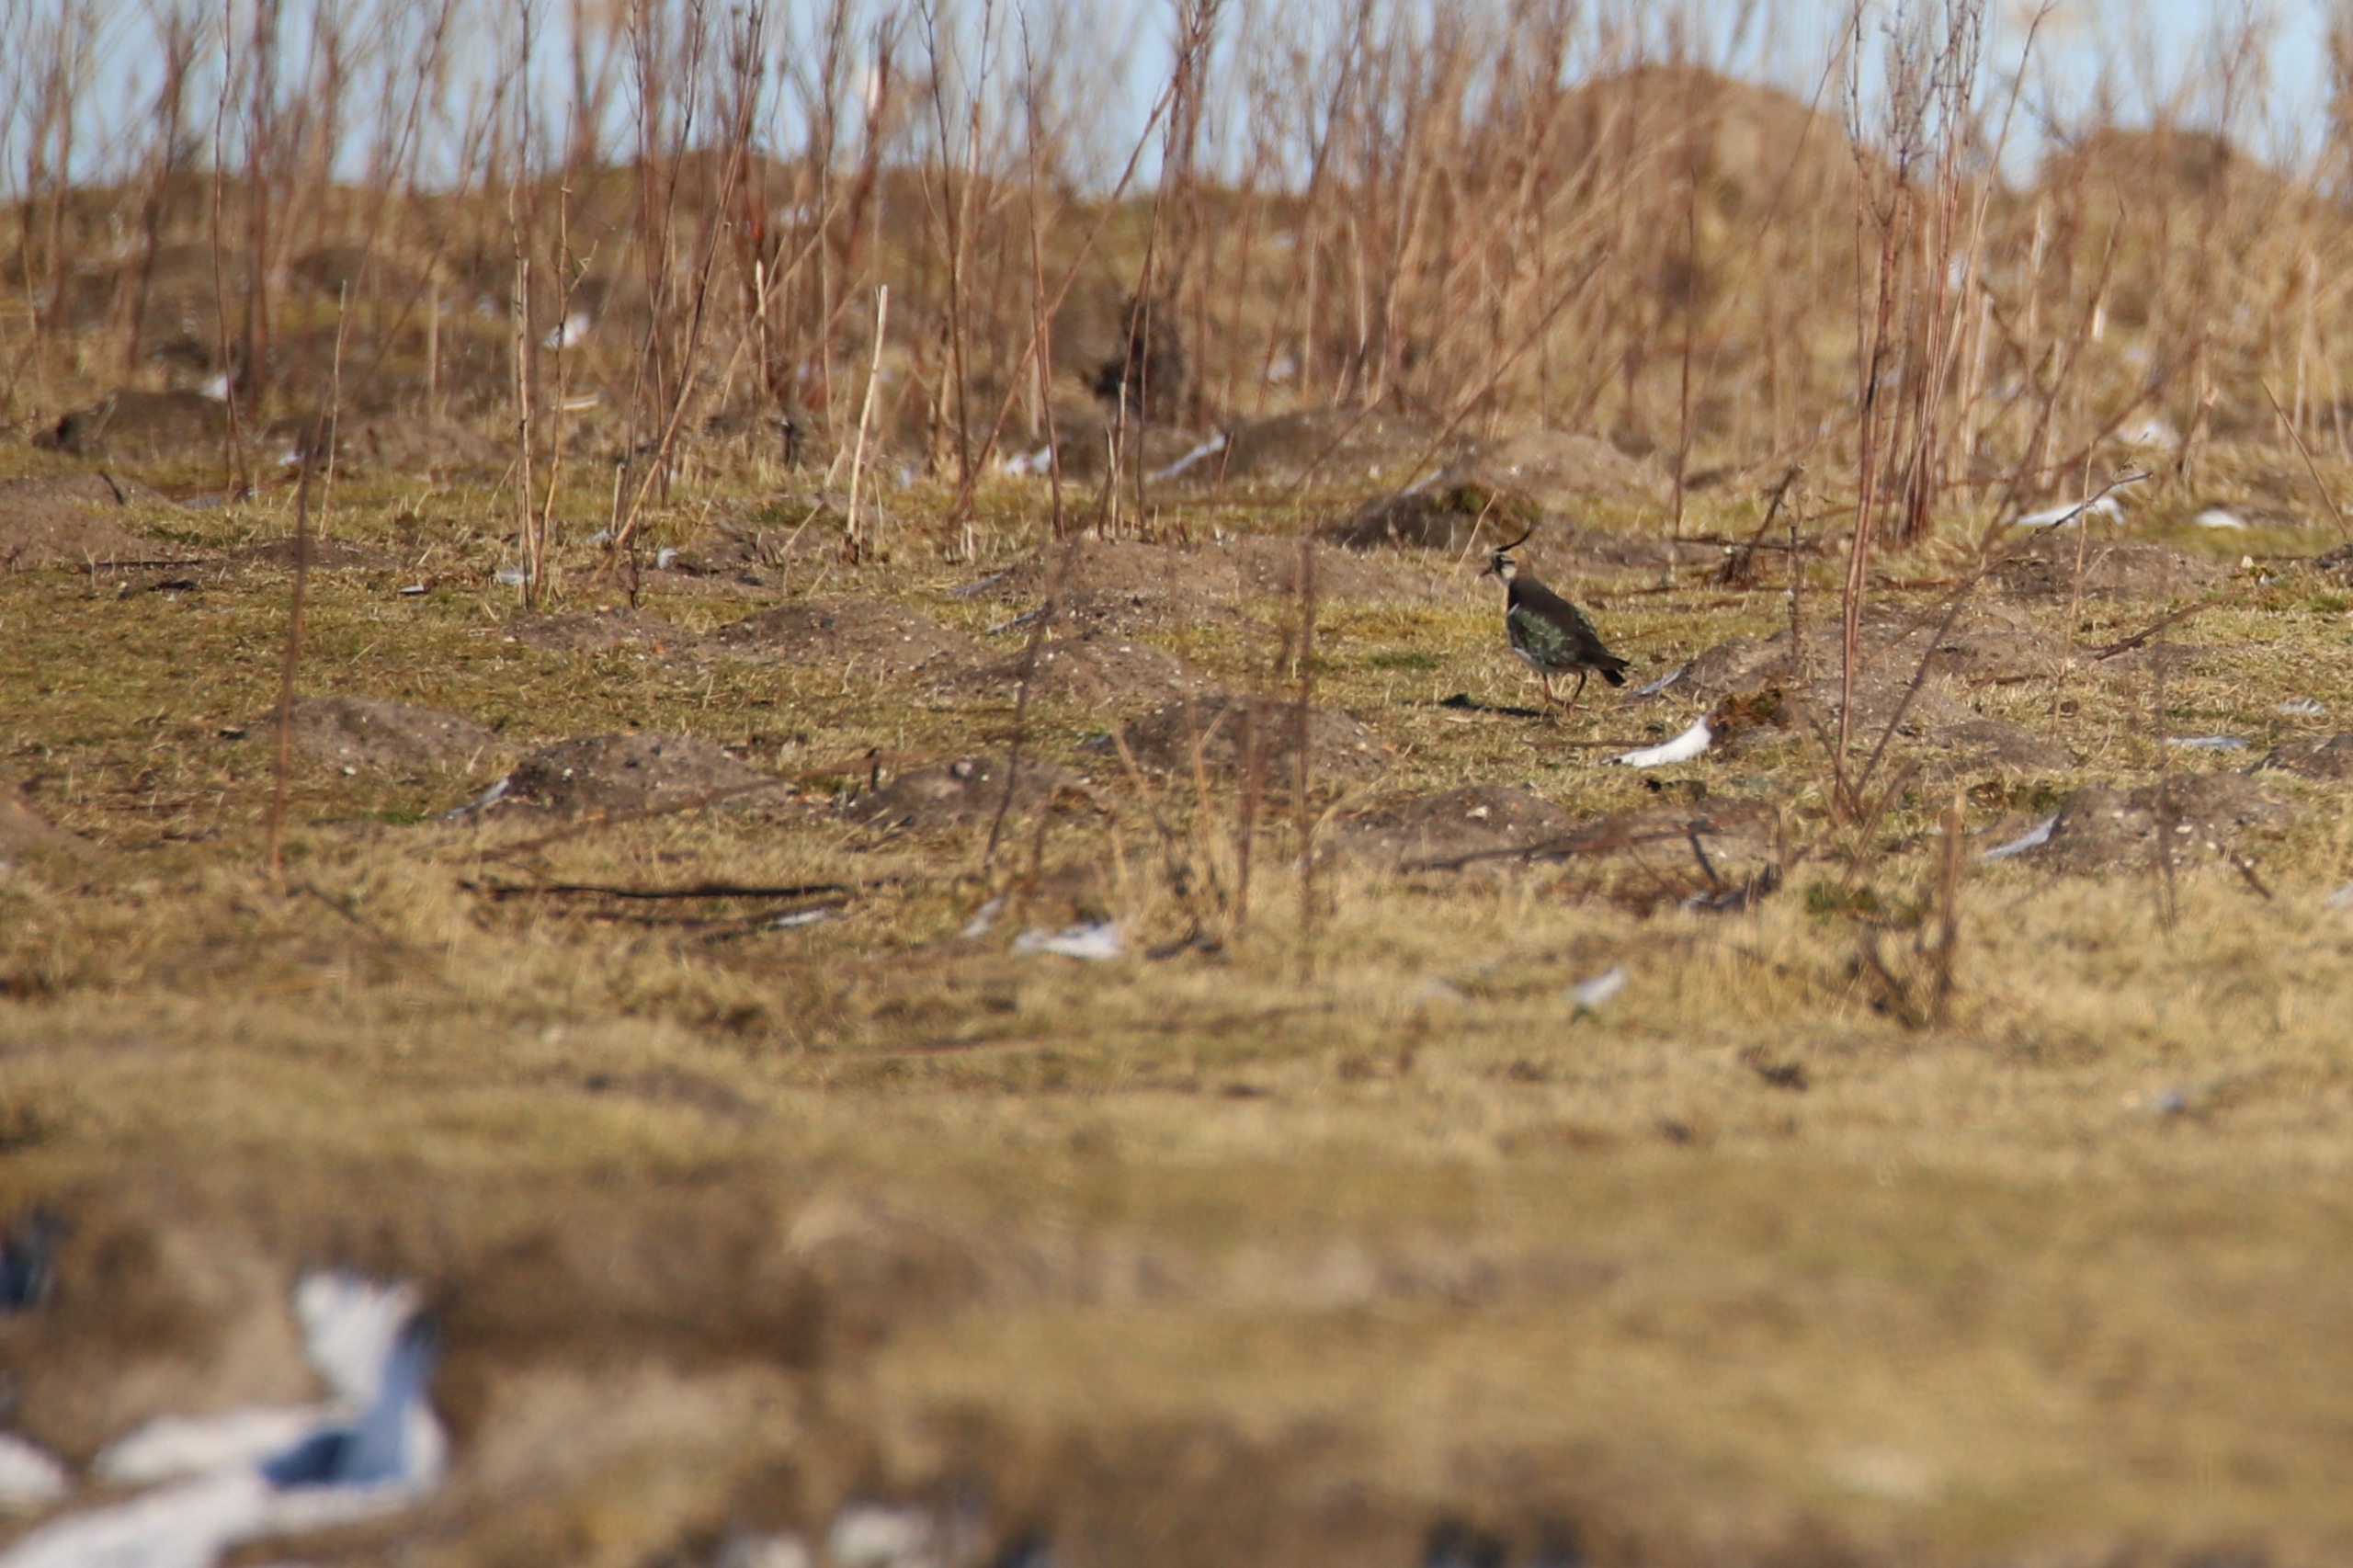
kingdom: Animalia
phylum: Chordata
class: Aves
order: Charadriiformes
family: Charadriidae
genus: Vanellus
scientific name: Vanellus vanellus
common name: Vibe
